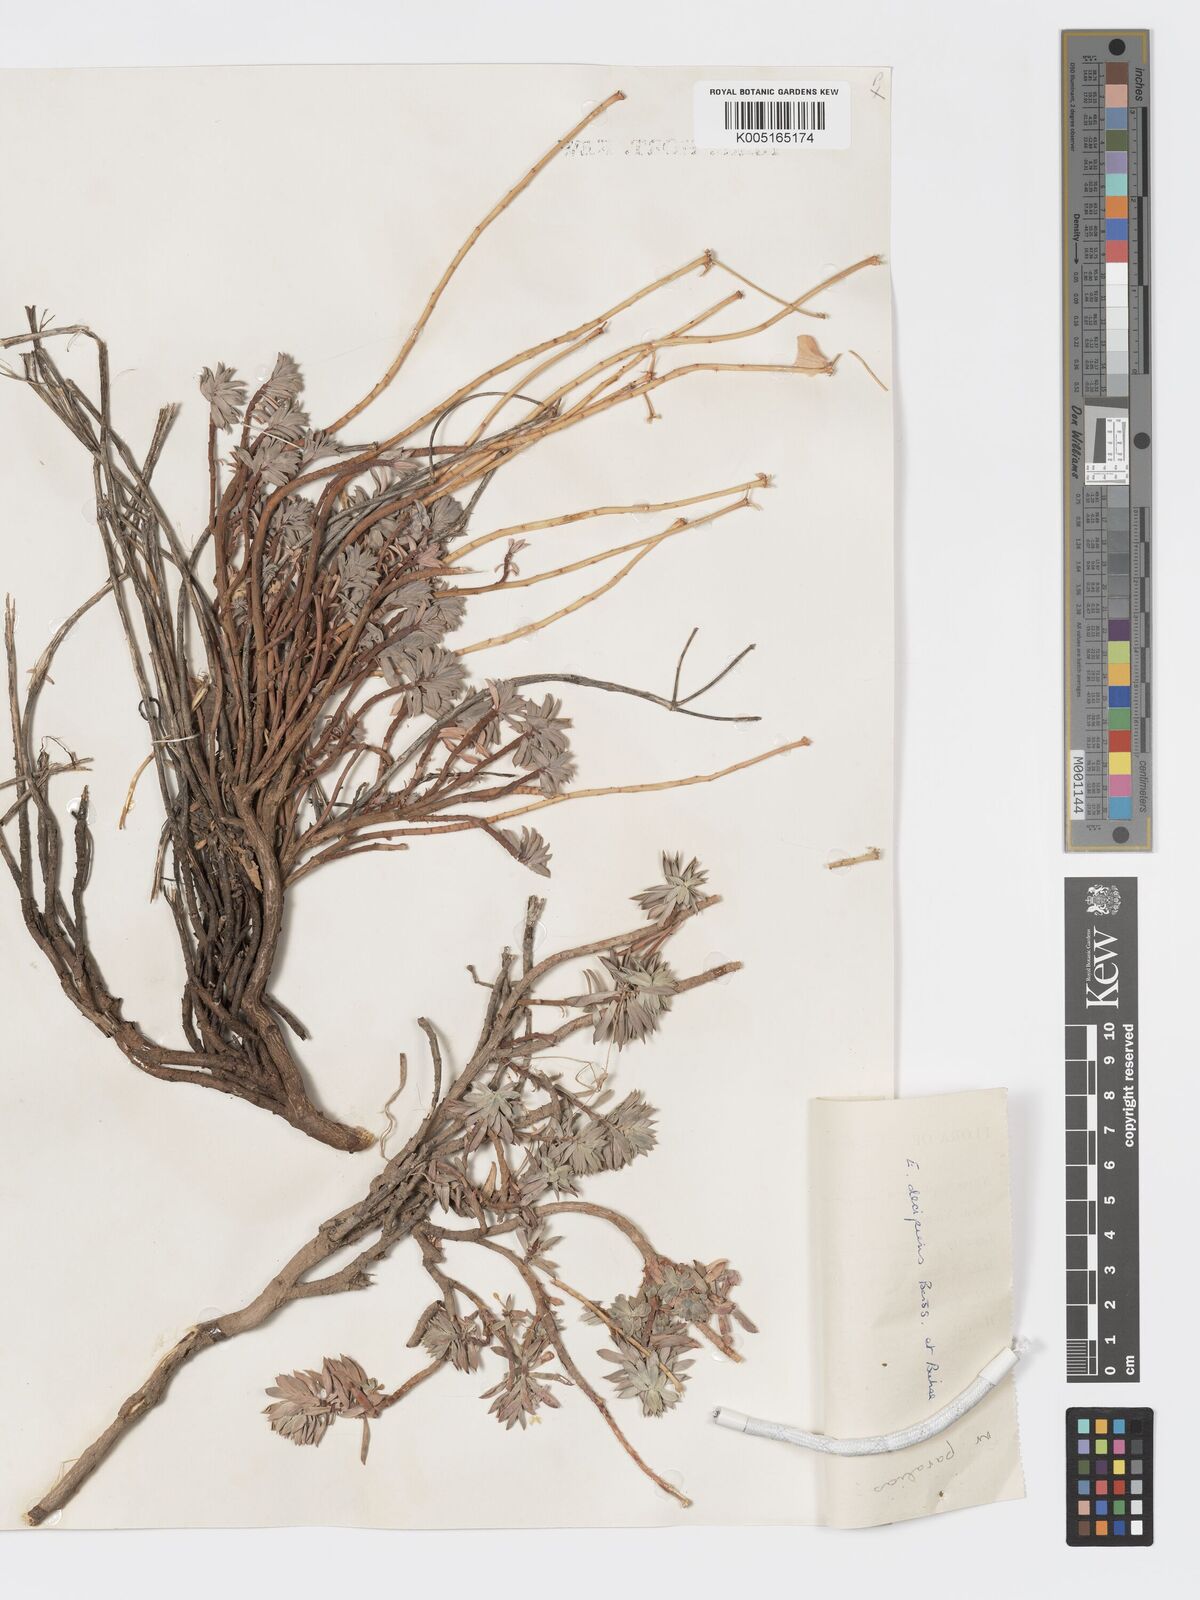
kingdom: Plantae
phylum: Tracheophyta
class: Magnoliopsida
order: Malpighiales
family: Euphorbiaceae
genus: Euphorbia
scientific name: Euphorbia polycaulis
